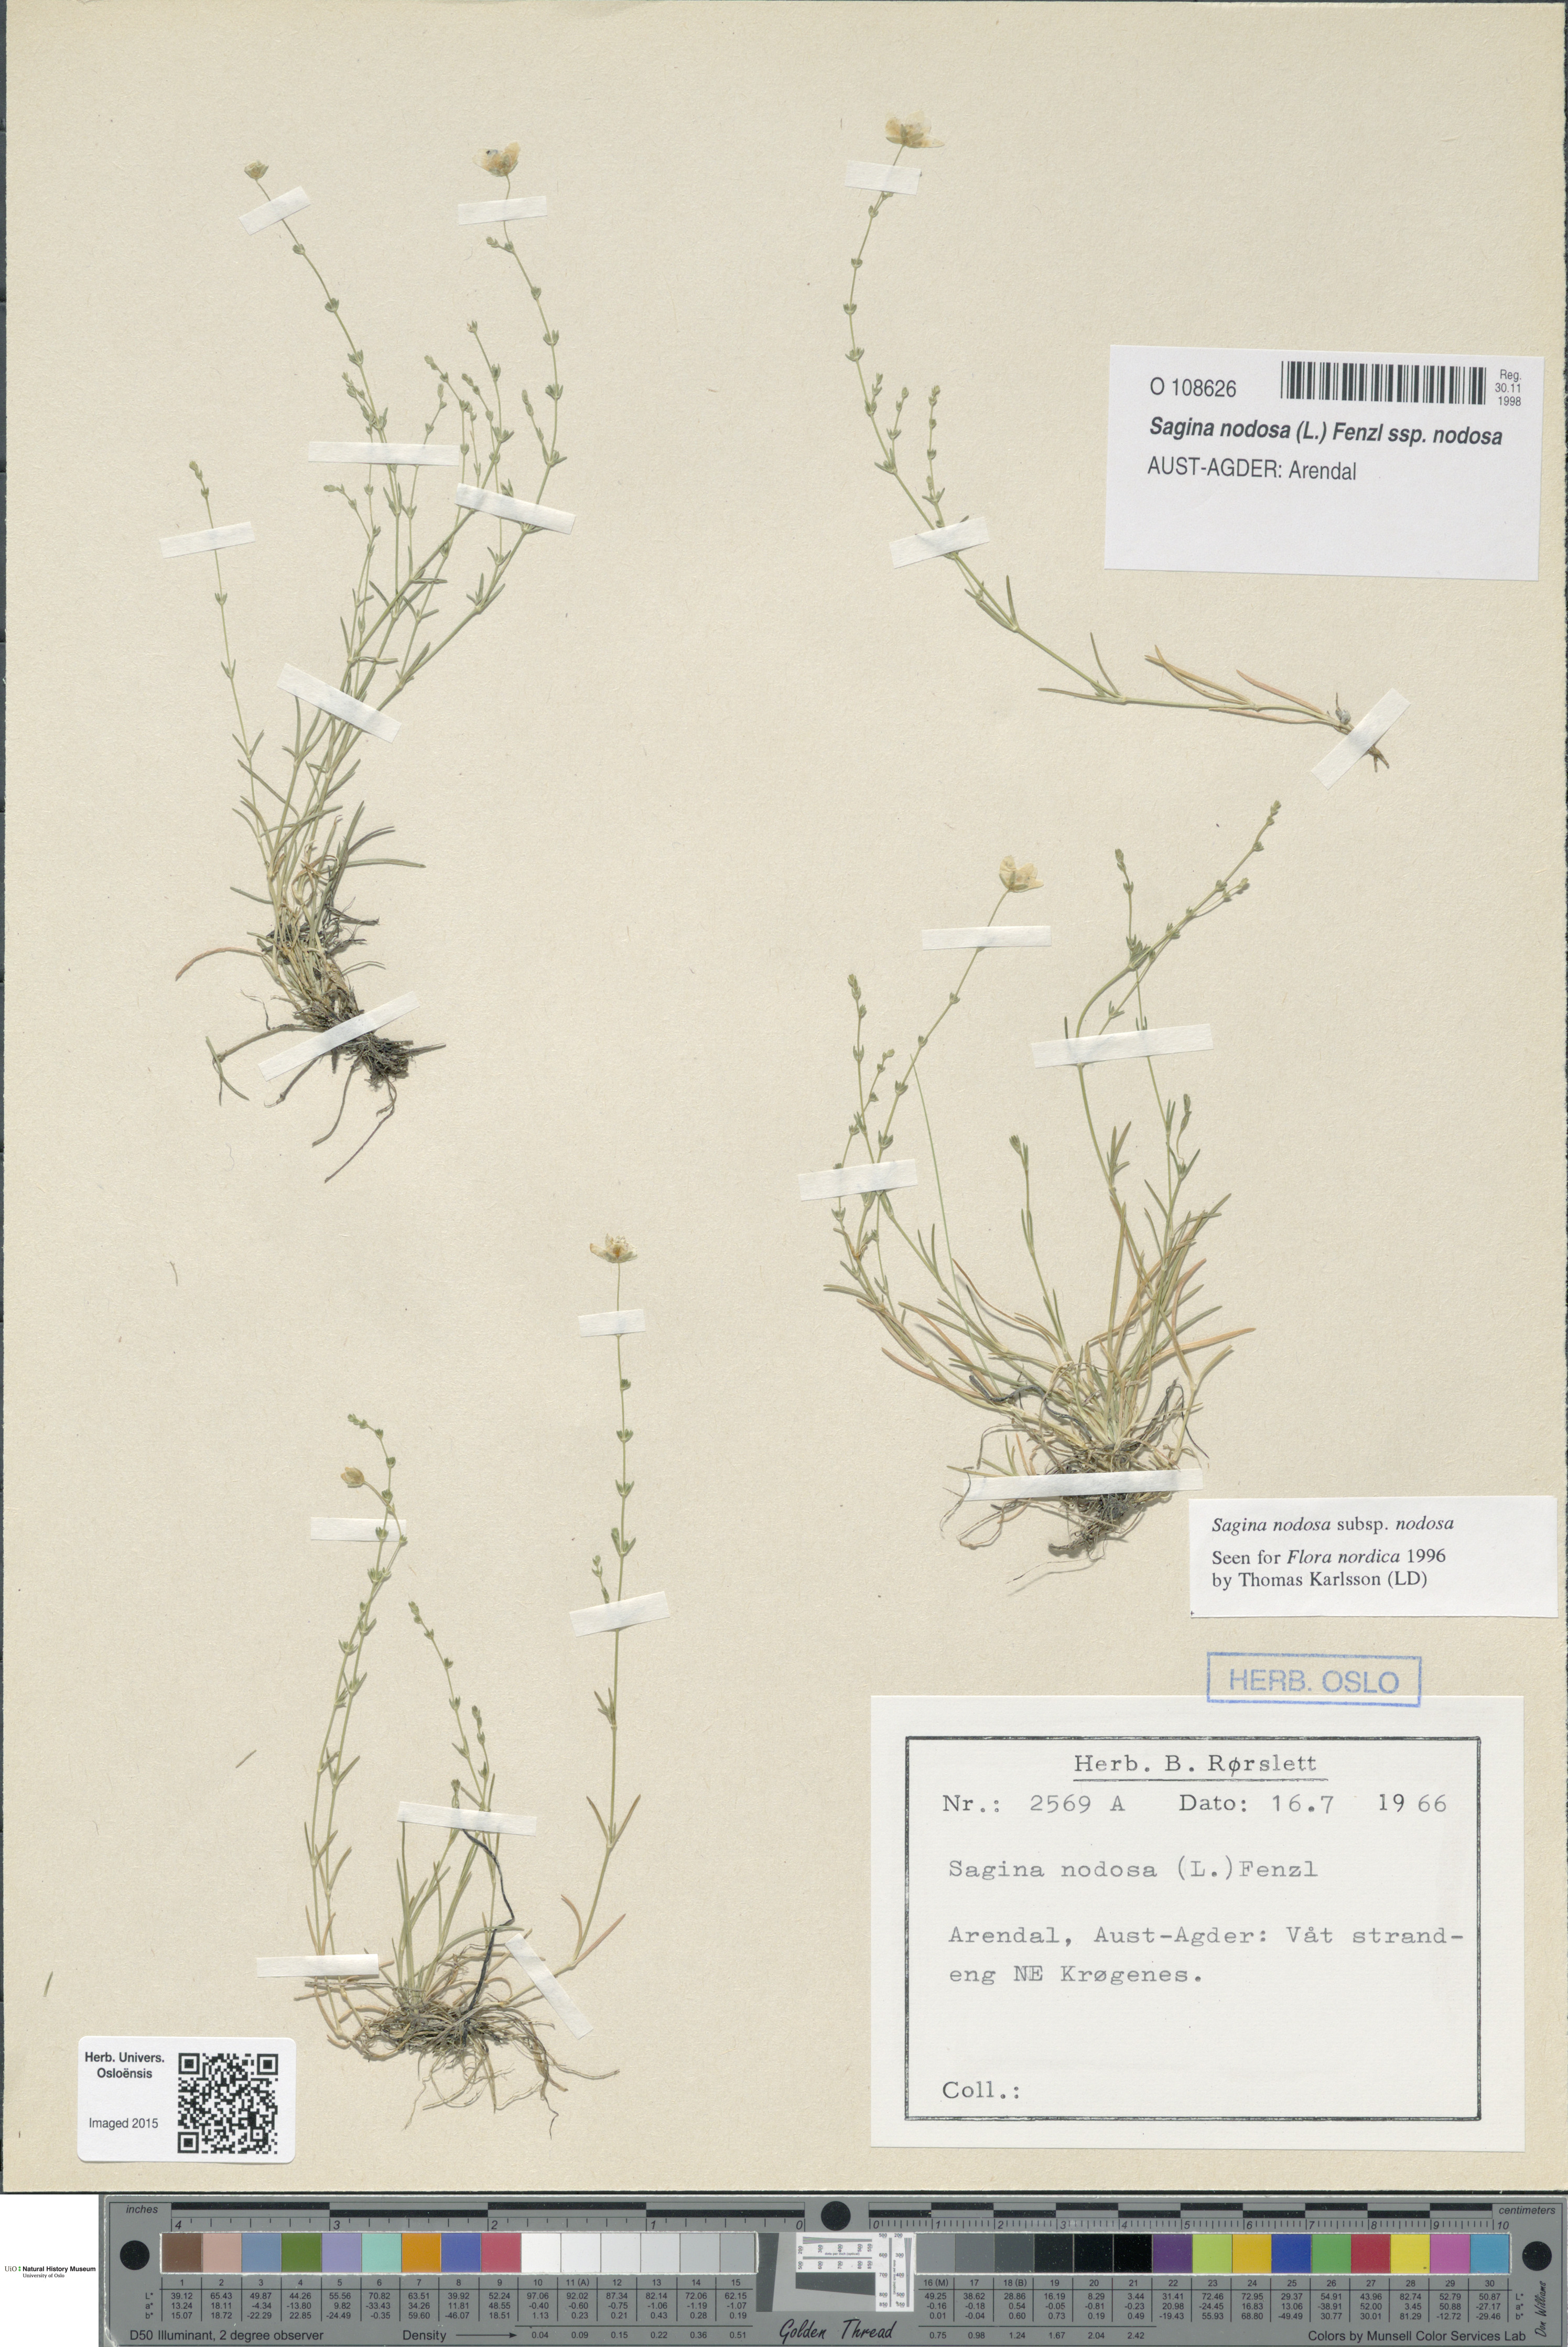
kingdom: Plantae
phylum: Tracheophyta
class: Magnoliopsida
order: Caryophyllales
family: Caryophyllaceae
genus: Sagina
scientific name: Sagina nodosa
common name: Knotted pearlwort
